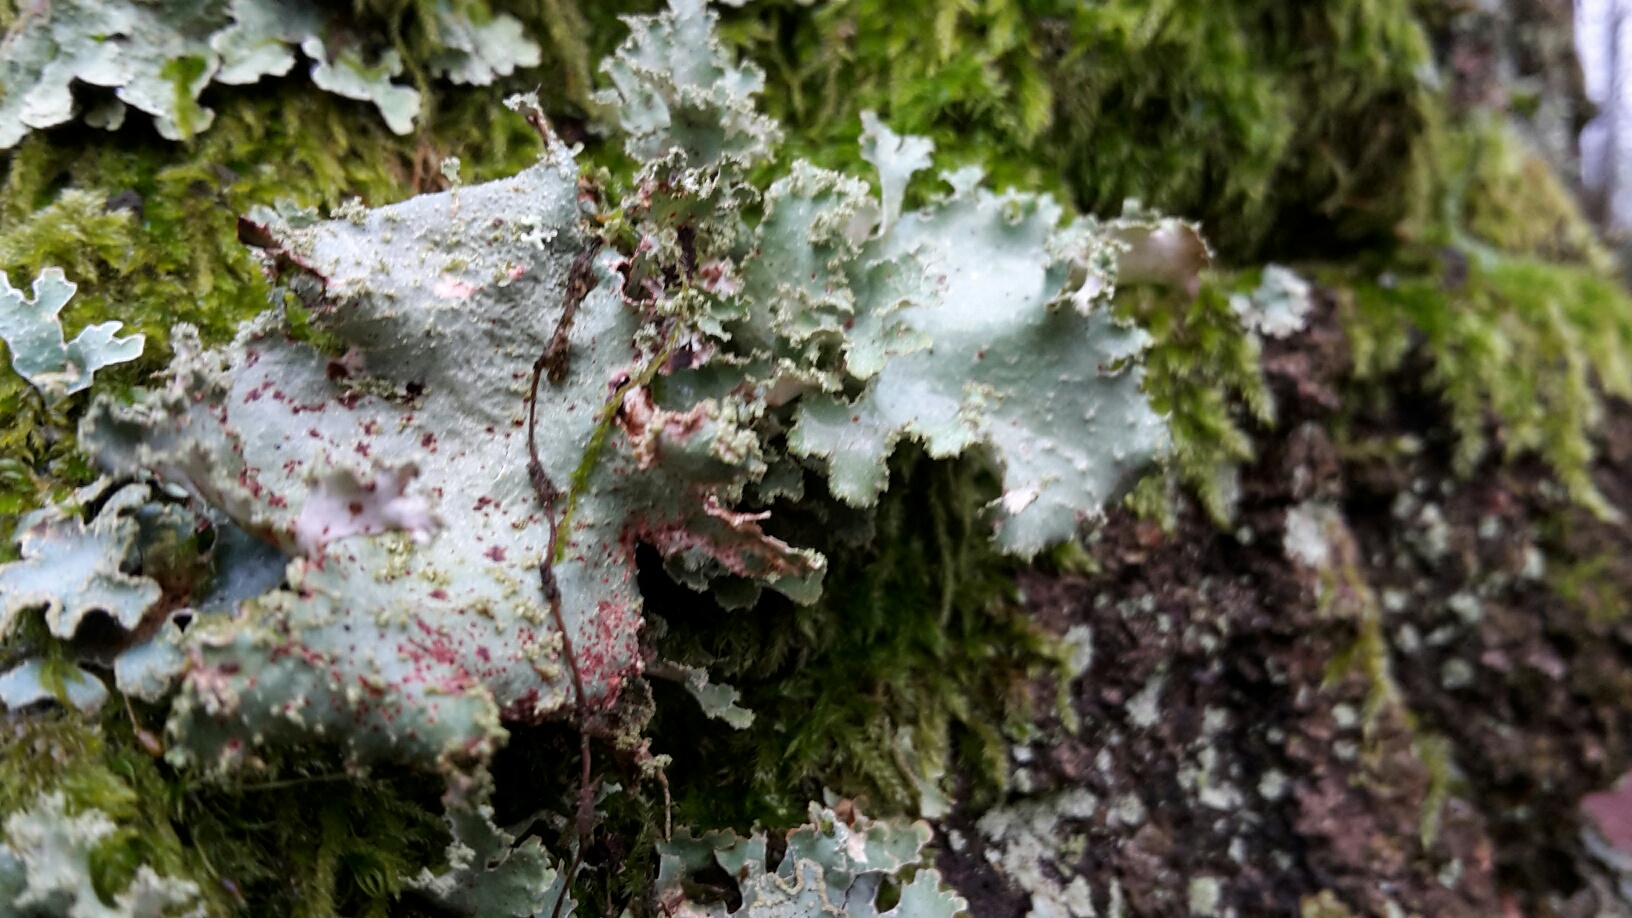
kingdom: Fungi
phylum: Ascomycota
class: Lecanoromycetes
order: Lecanorales
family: Parmeliaceae
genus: Platismatia
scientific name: Platismatia glauca
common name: blågrå papirlav
